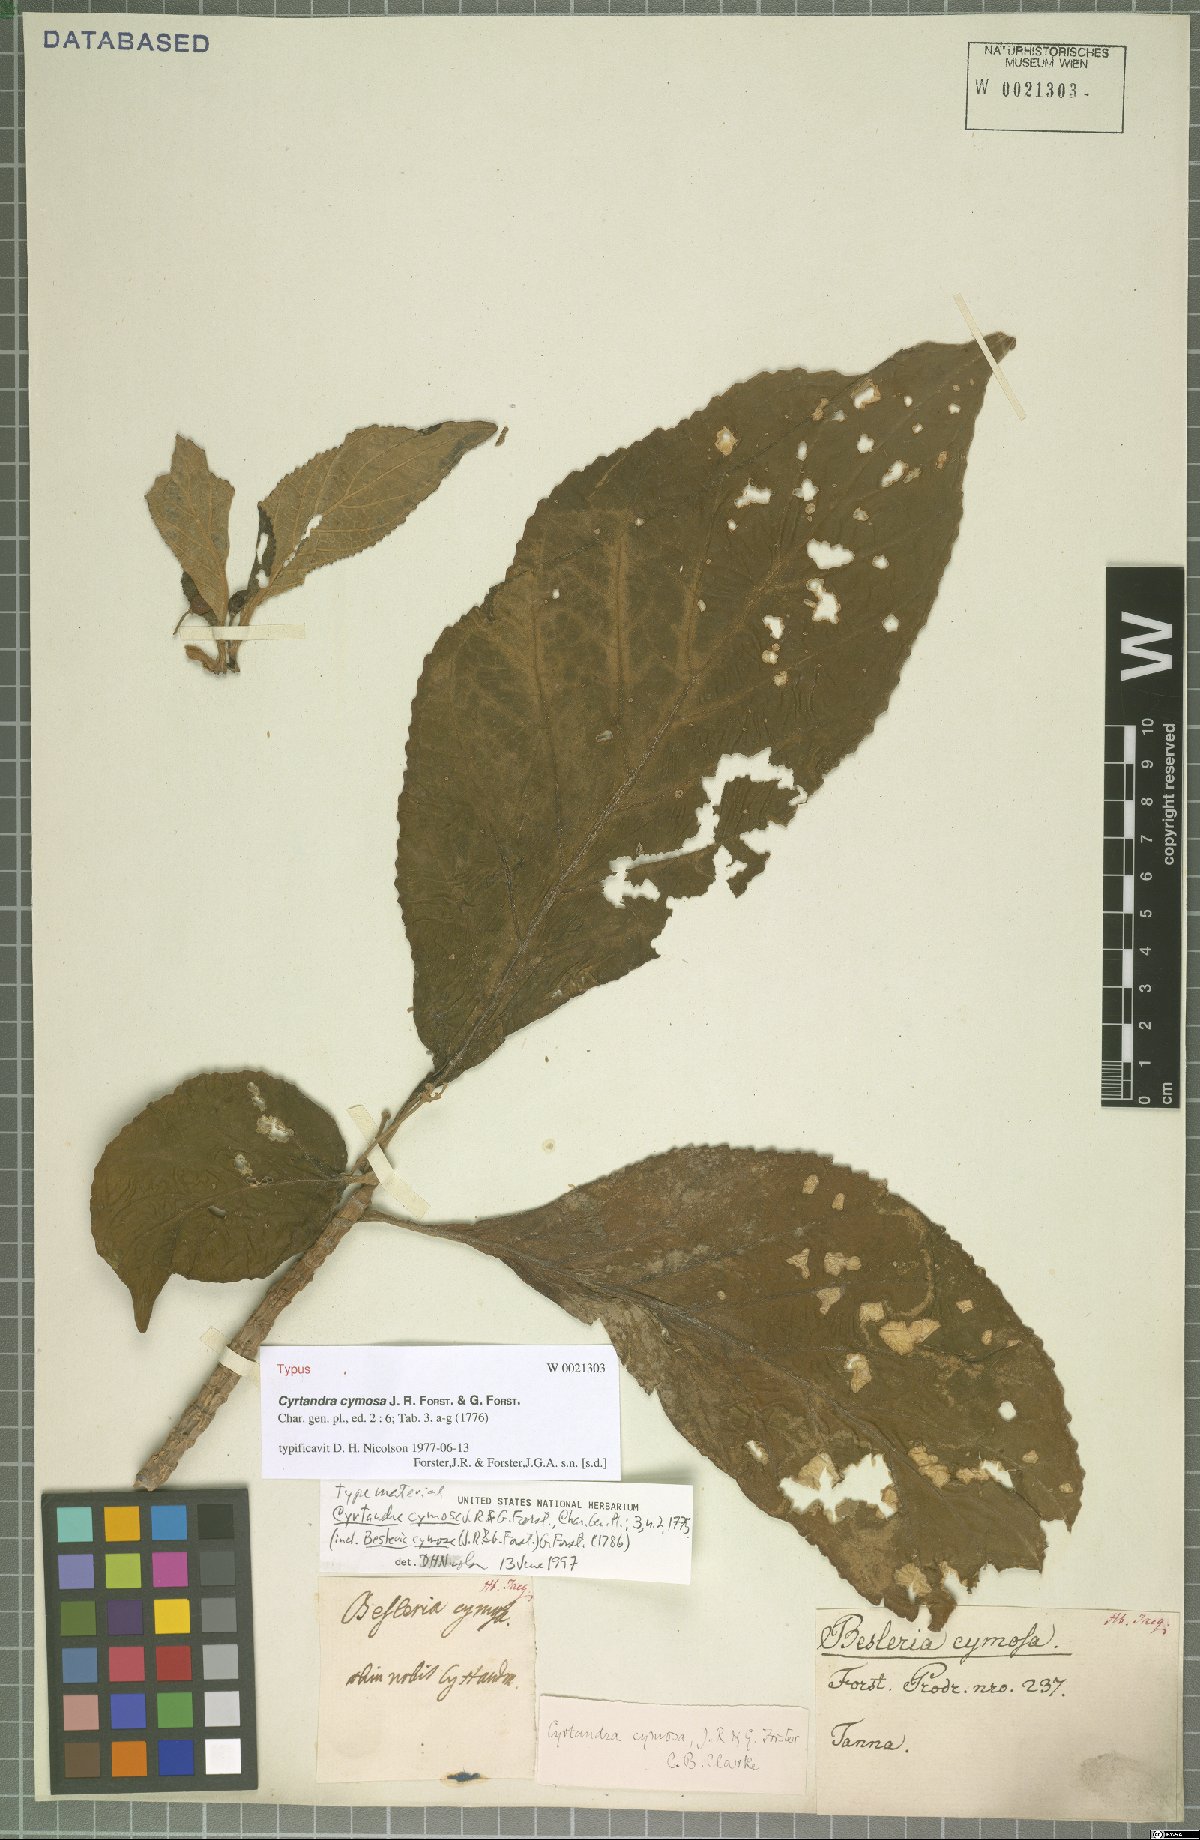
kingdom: Plantae
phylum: Tracheophyta
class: Magnoliopsida
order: Lamiales
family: Gesneriaceae
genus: Cyrtandra
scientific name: Cyrtandra cymosa
